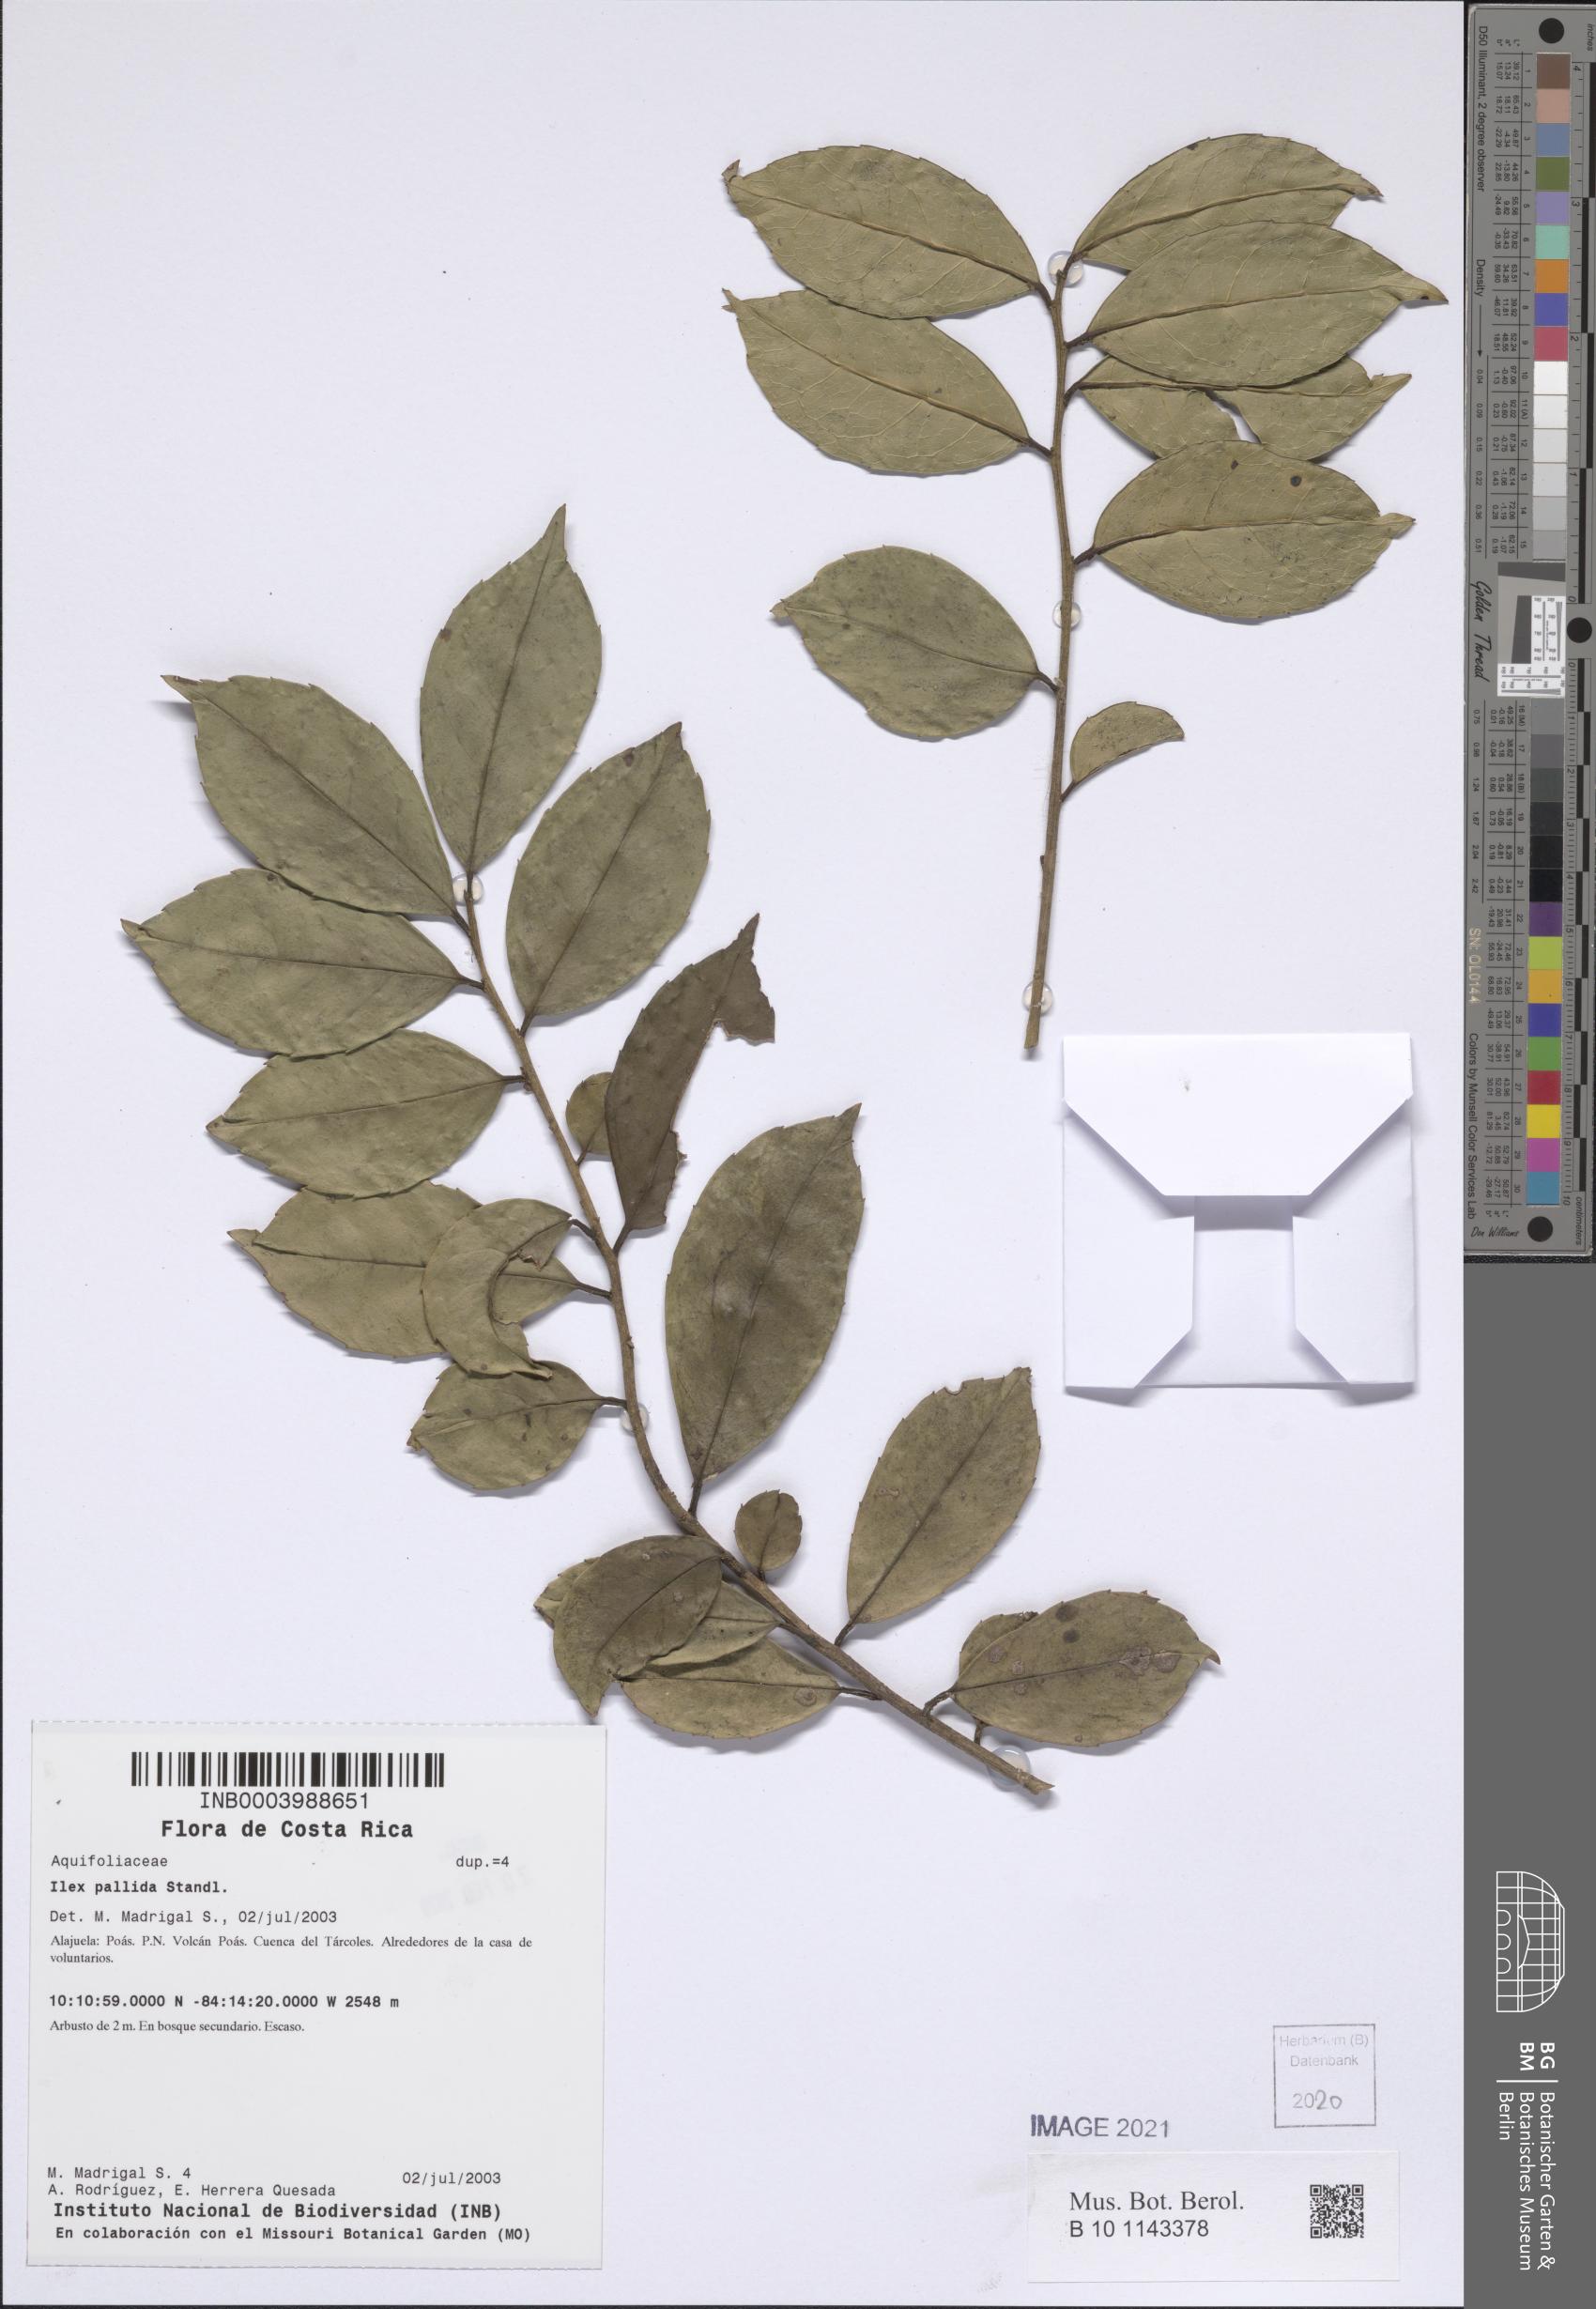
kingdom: Plantae
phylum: Tracheophyta
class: Magnoliopsida
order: Aquifoliales
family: Aquifoliaceae
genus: Ilex
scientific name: Ilex pallida
